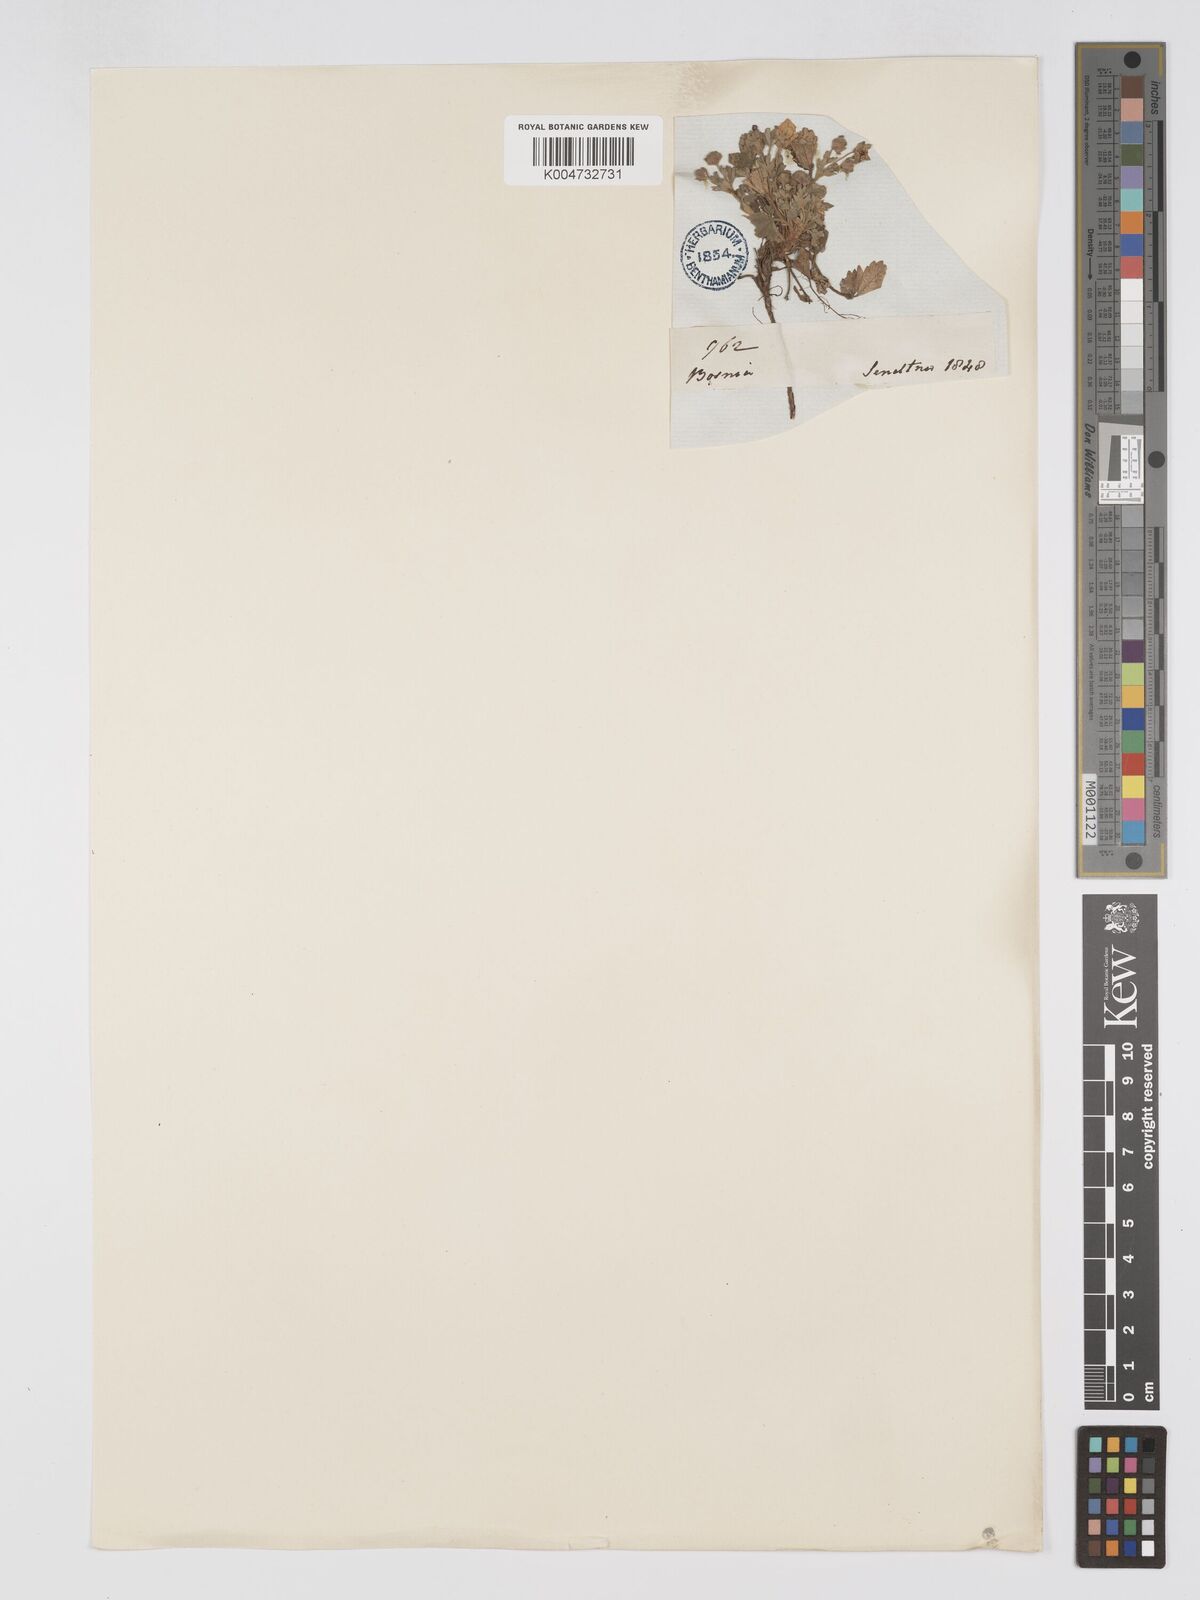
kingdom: Plantae
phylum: Tracheophyta
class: Magnoliopsida
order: Rosales
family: Rosaceae
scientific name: Rosaceae
